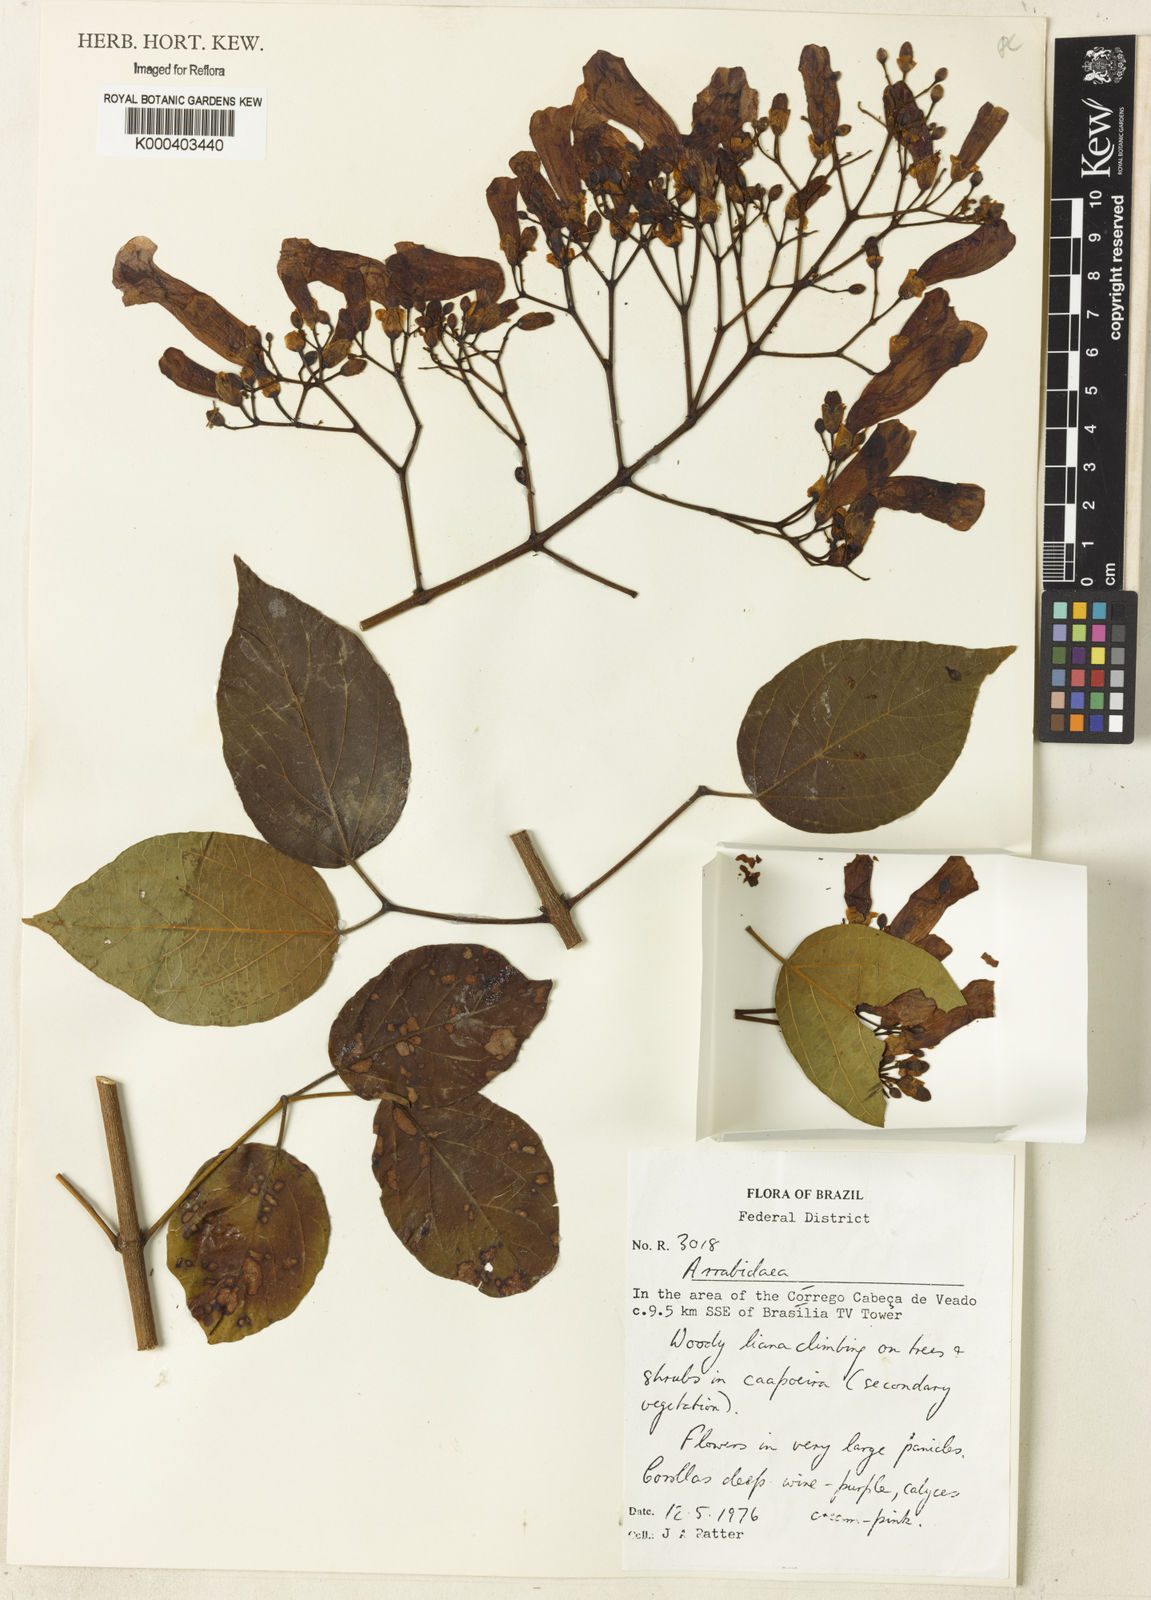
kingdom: Plantae
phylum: Tracheophyta
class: Magnoliopsida
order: Rosales
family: Rhamnaceae
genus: Arrabidaea
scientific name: Arrabidaea
